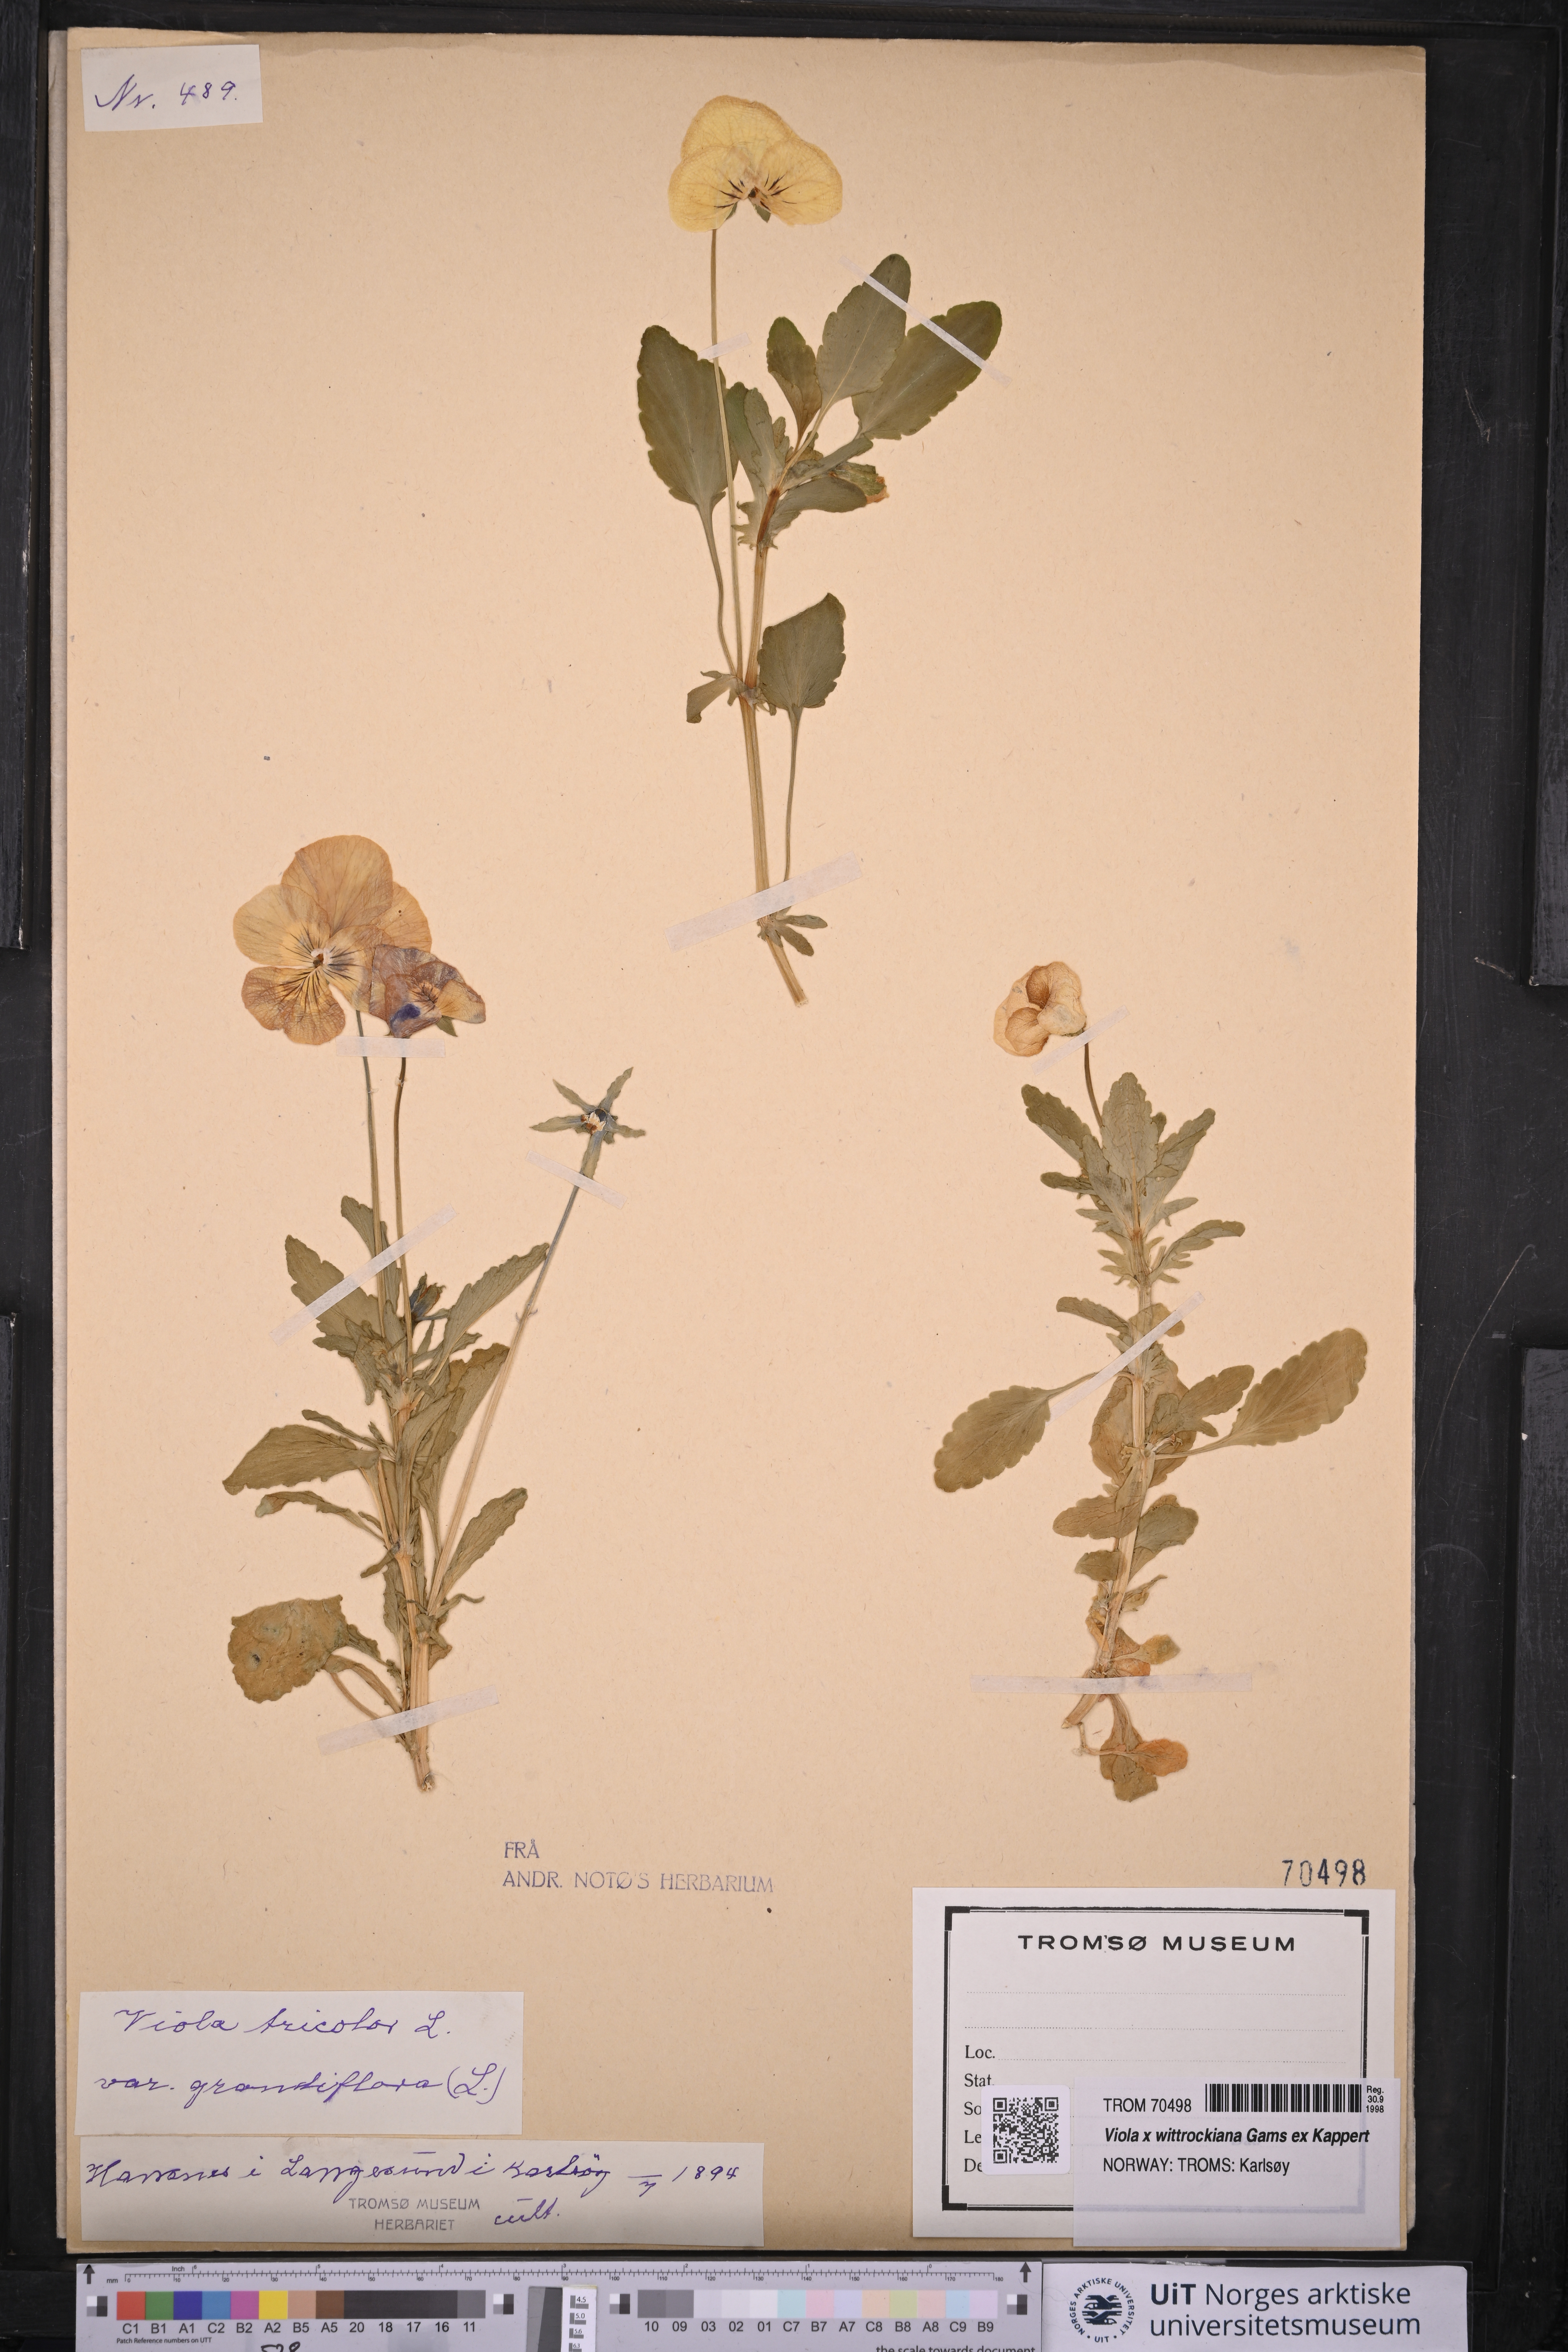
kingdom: Plantae
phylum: Tracheophyta
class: Magnoliopsida
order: Malpighiales
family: Violaceae
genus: Viola
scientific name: Viola wittrockiana
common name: Garden pansy
